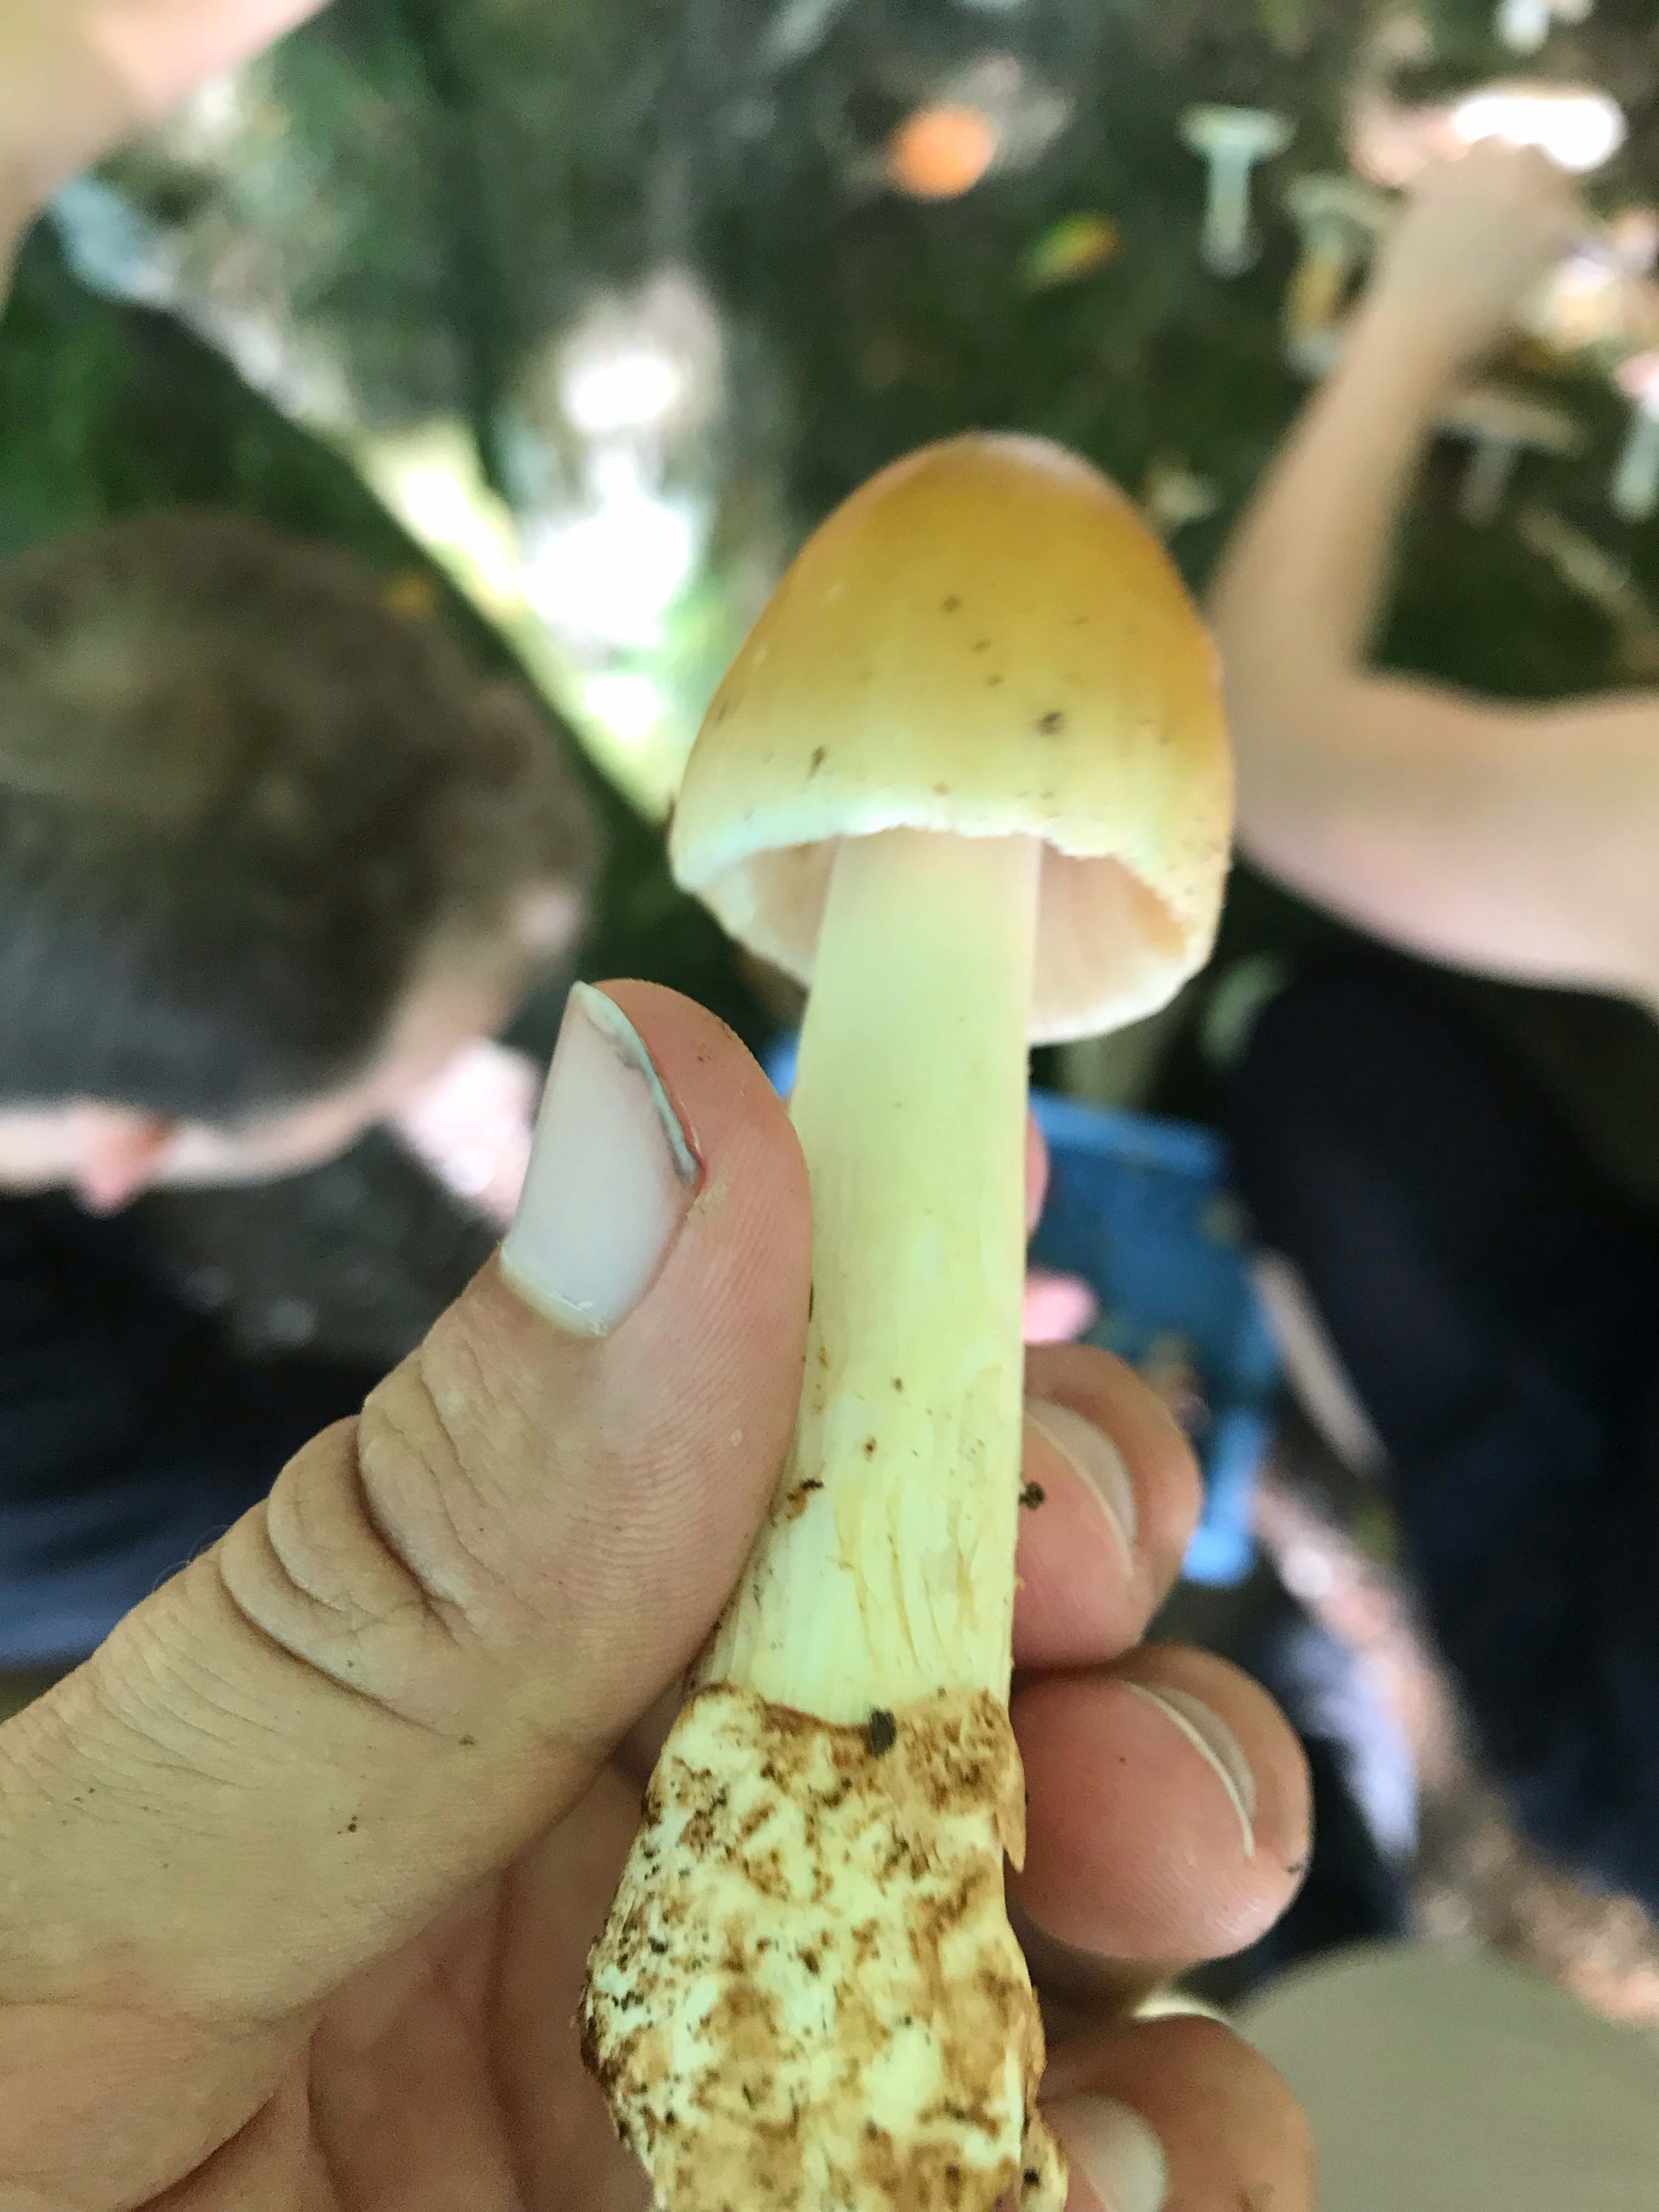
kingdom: Fungi
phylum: Basidiomycota
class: Agaricomycetes
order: Agaricales
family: Amanitaceae
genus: Amanita
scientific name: Amanita fulva
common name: brun kam-fluesvamp
